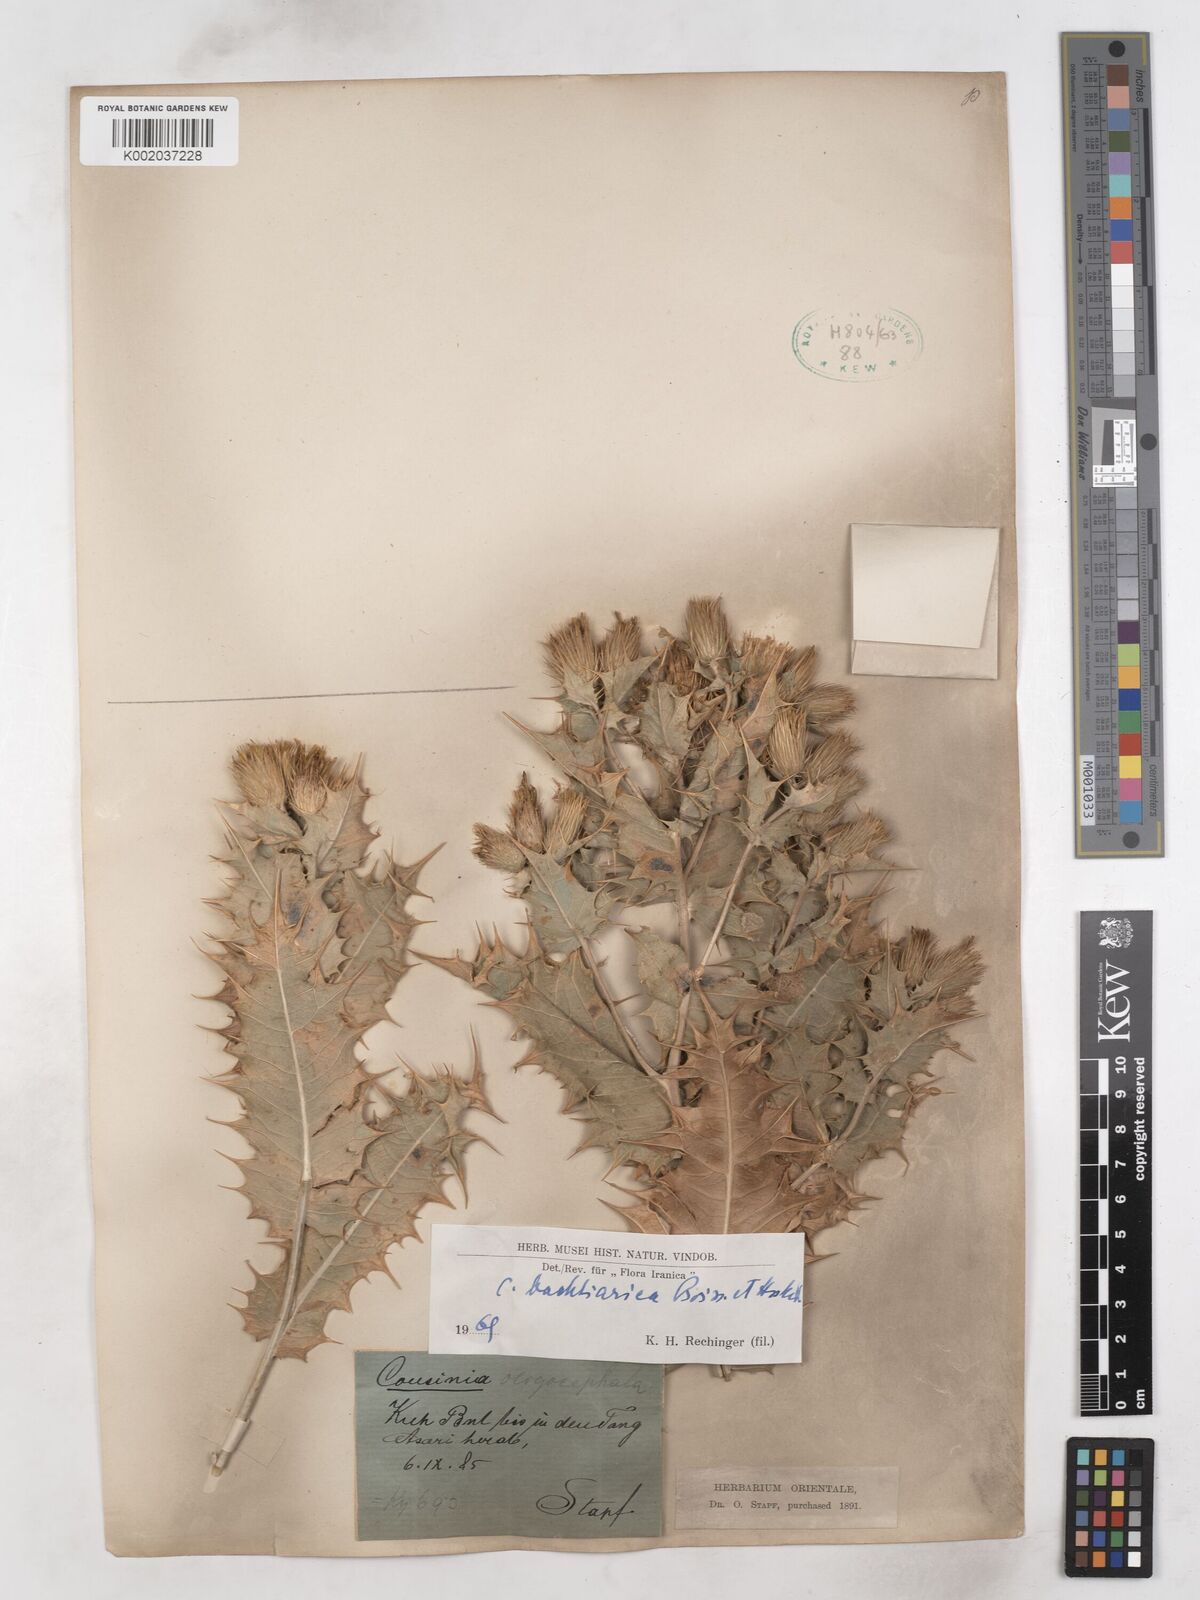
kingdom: Plantae
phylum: Tracheophyta
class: Magnoliopsida
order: Asterales
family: Asteraceae
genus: Cousinia
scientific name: Cousinia bachtiarica
